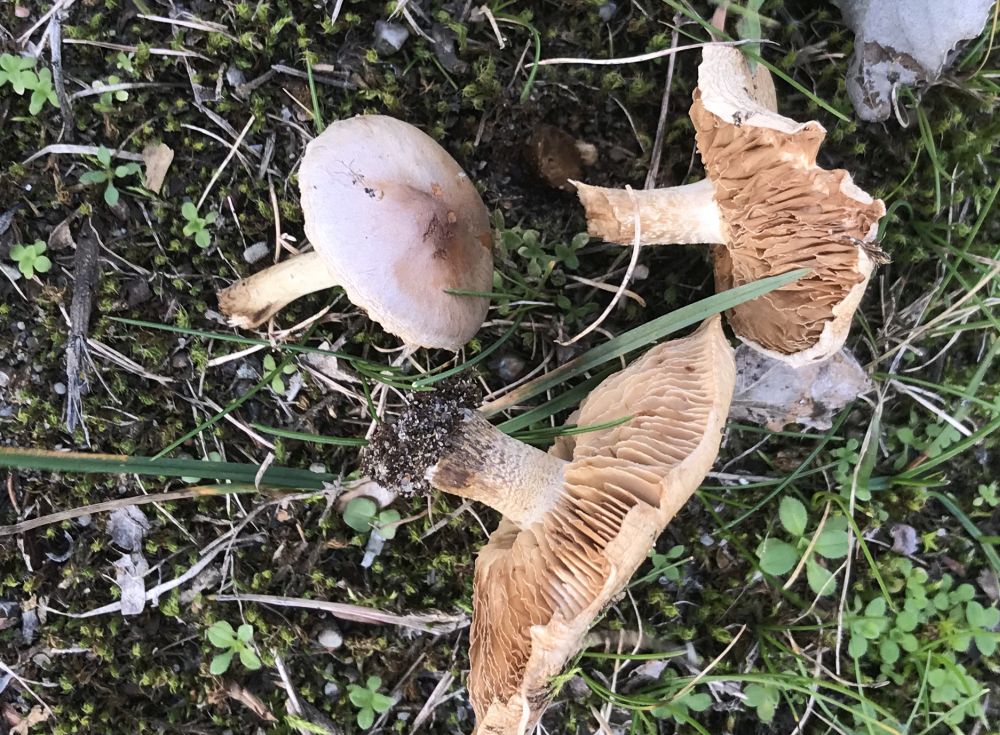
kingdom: Fungi
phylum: Basidiomycota
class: Agaricomycetes
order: Agaricales
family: Hymenogastraceae
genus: Hebeloma
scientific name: Hebeloma
